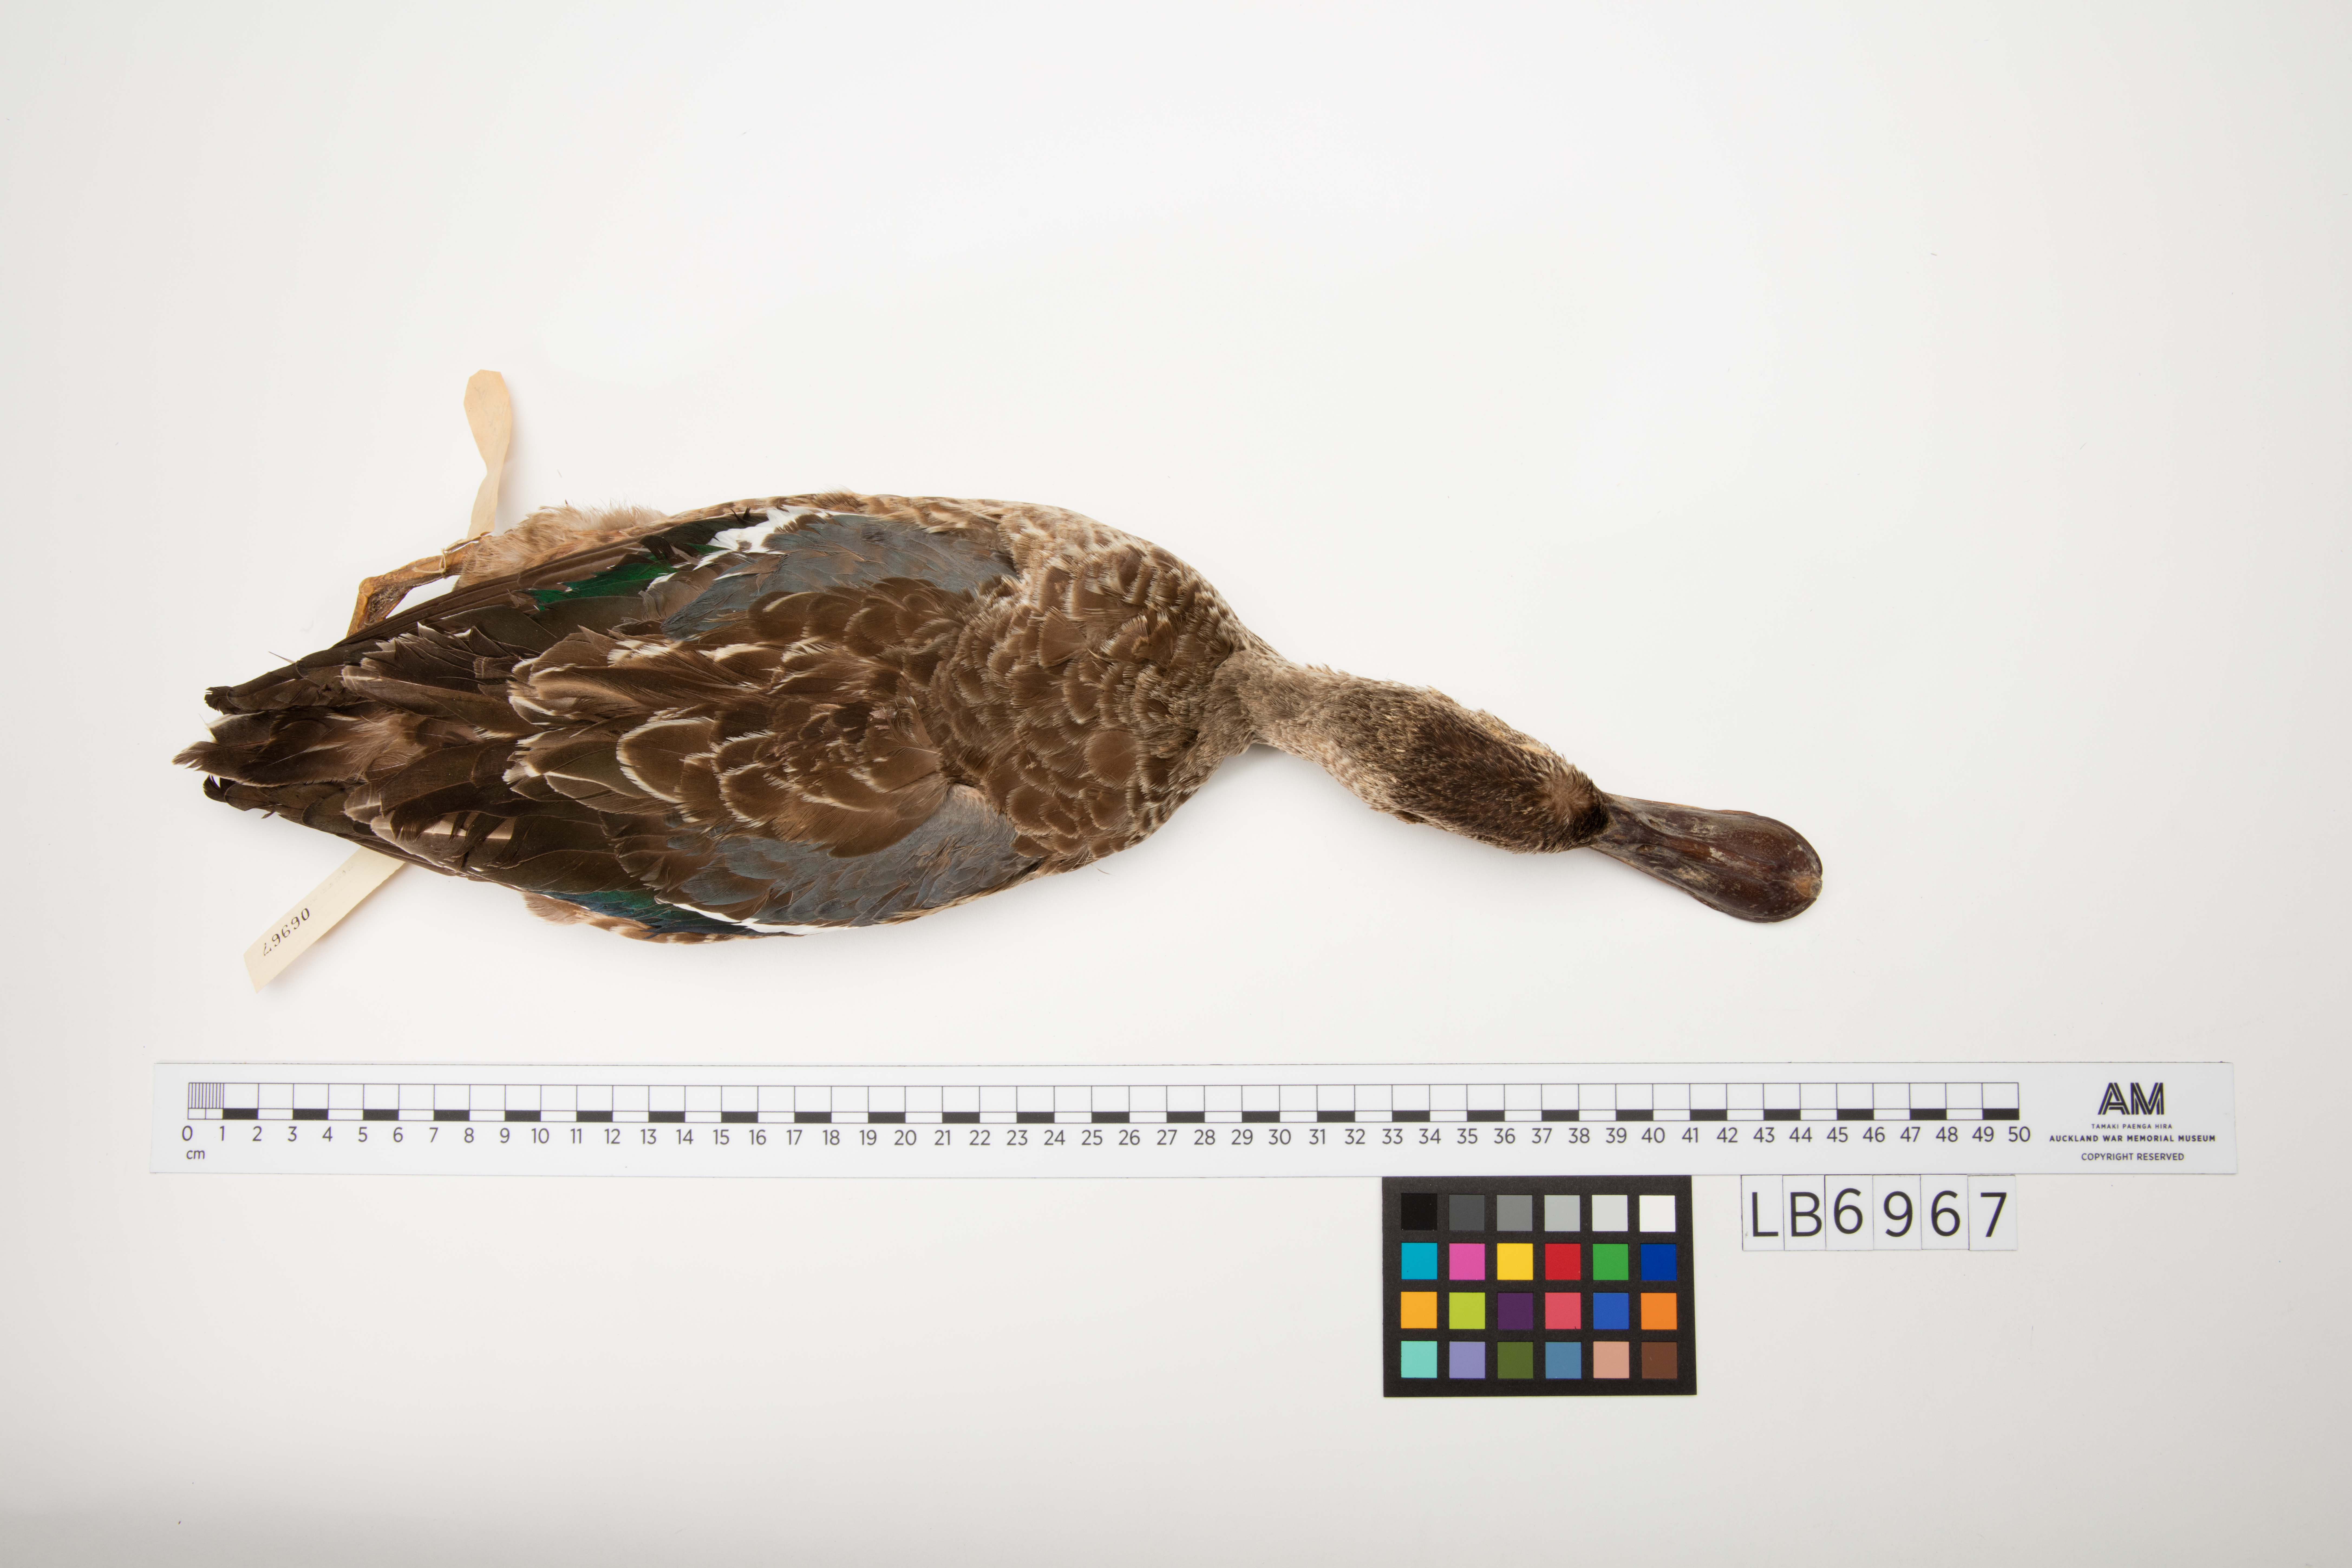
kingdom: Animalia
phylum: Chordata
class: Aves
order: Anseriformes
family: Anatidae
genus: Spatula
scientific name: Spatula clypeata
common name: Northern shoveler
